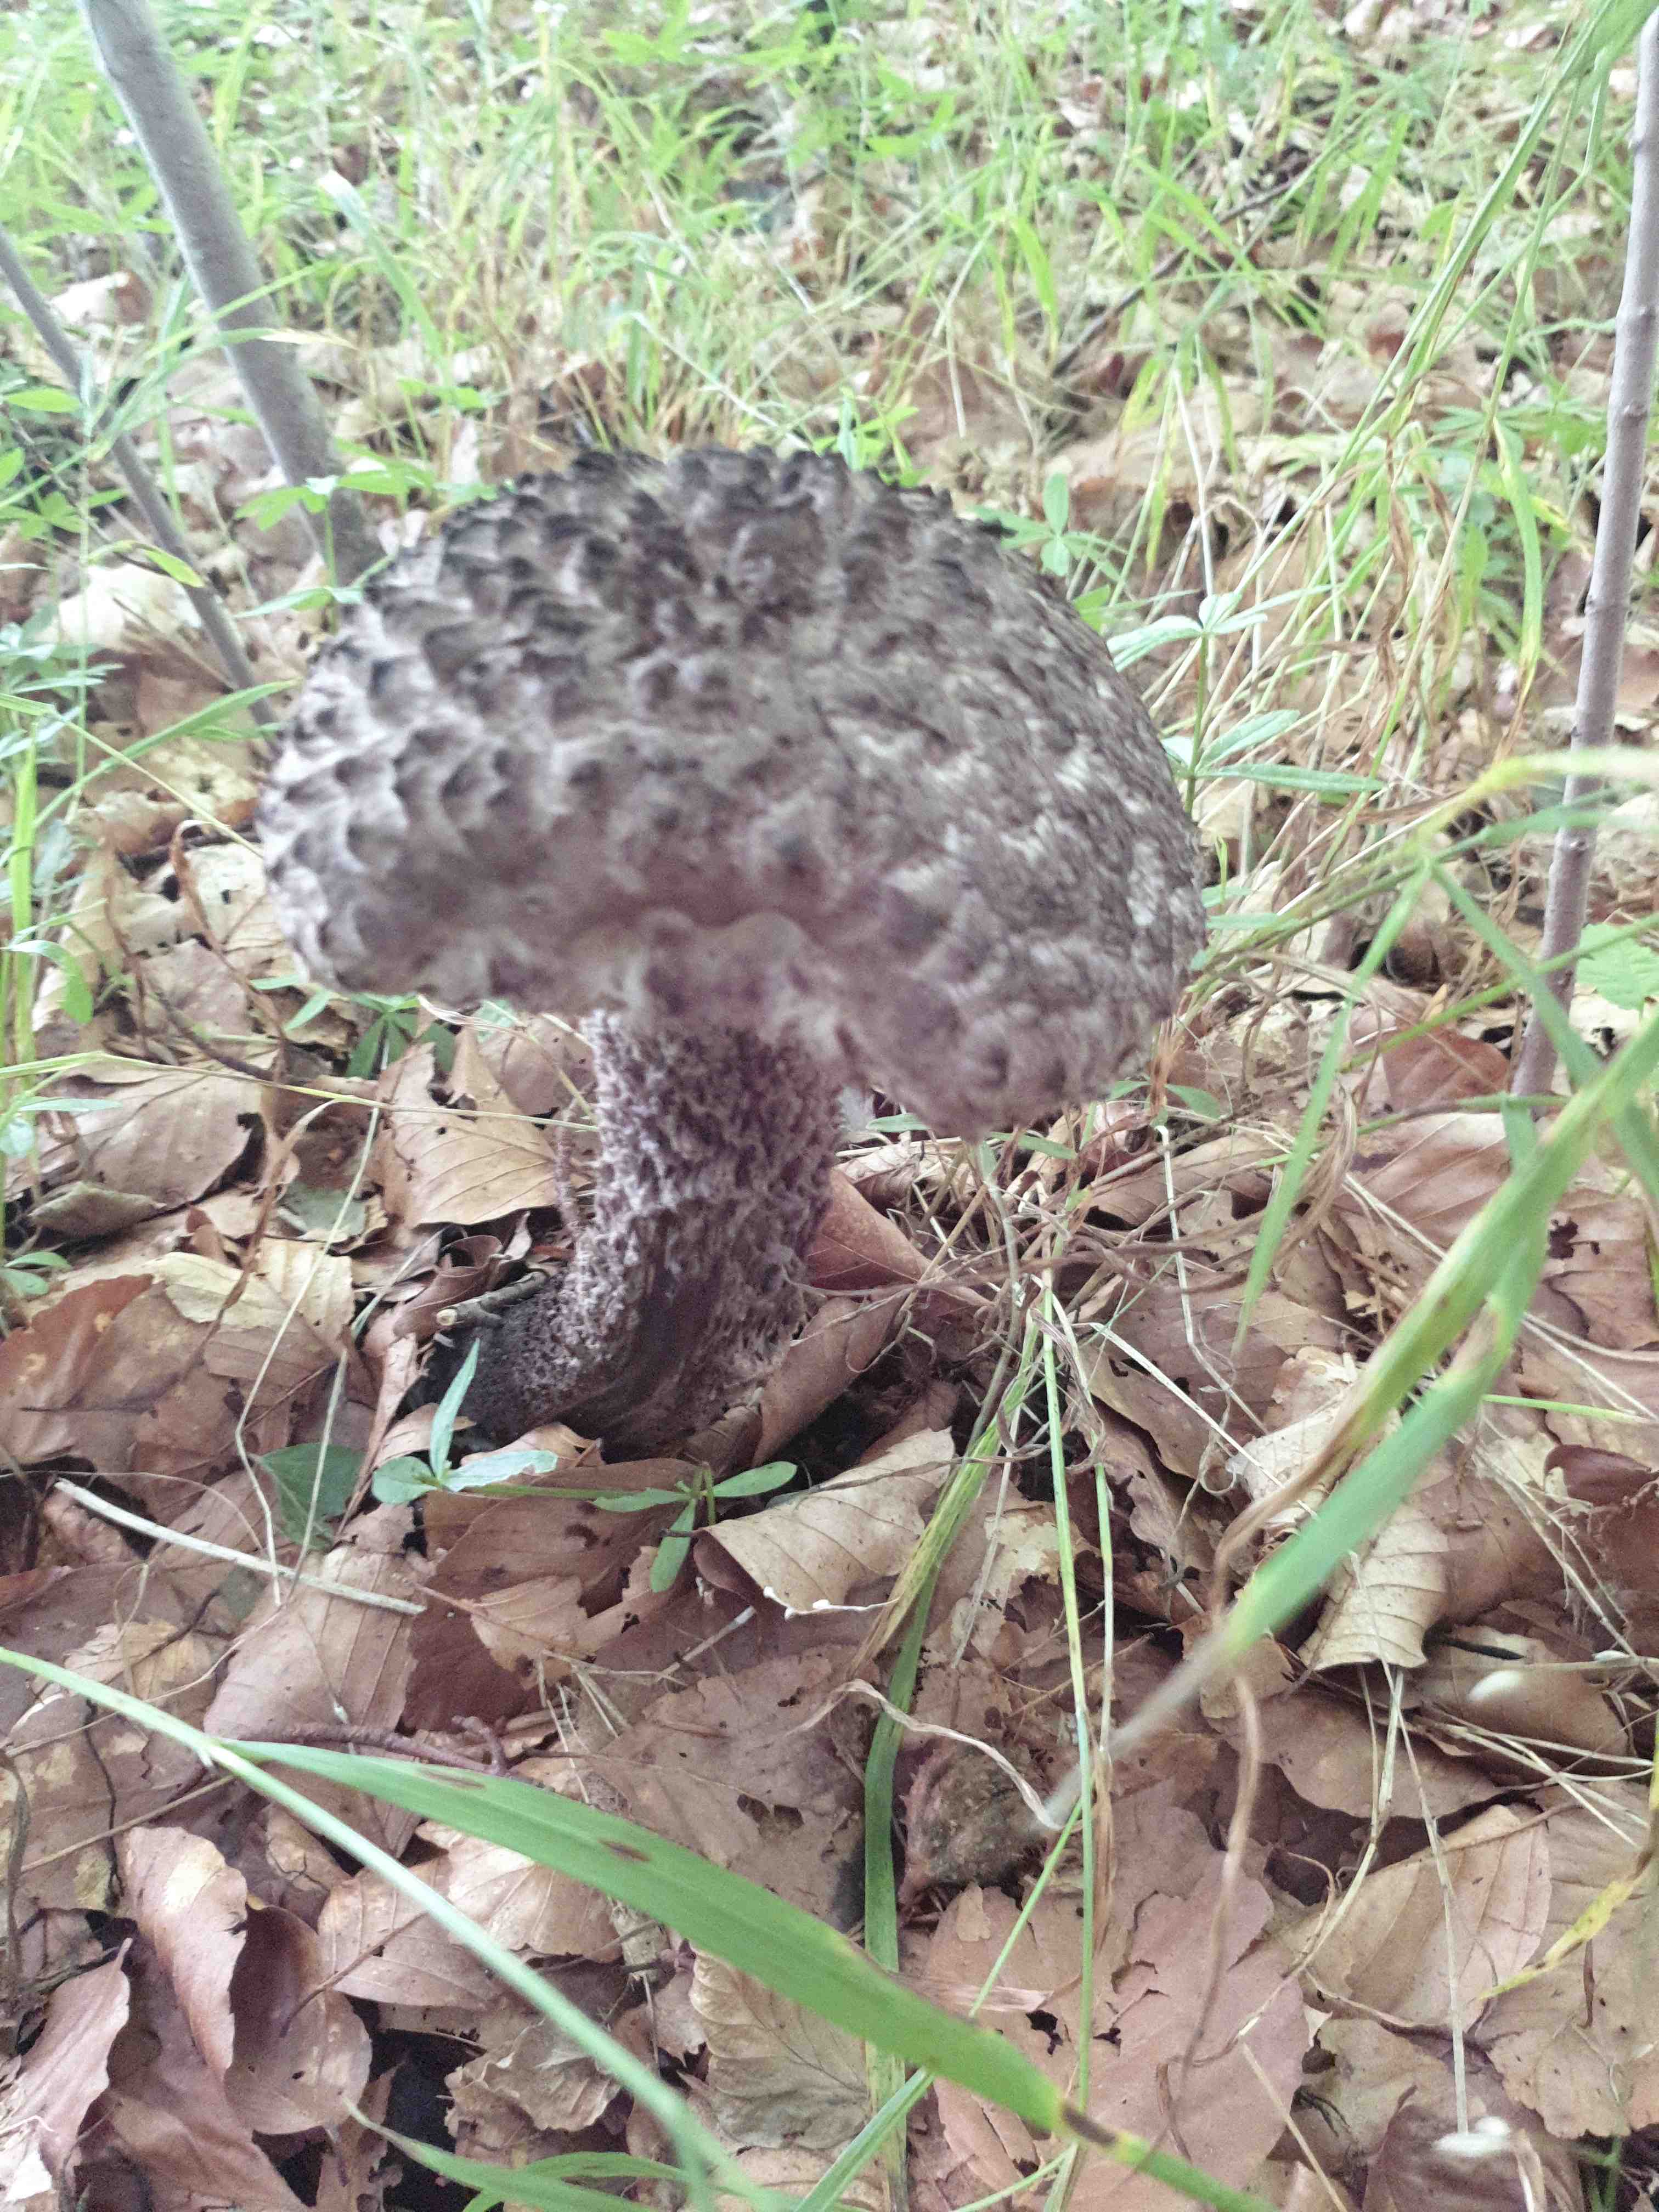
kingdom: Fungi
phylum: Basidiomycota
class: Agaricomycetes
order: Boletales
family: Boletaceae
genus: Strobilomyces
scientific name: Strobilomyces strobilaceus
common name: koglerørhat
